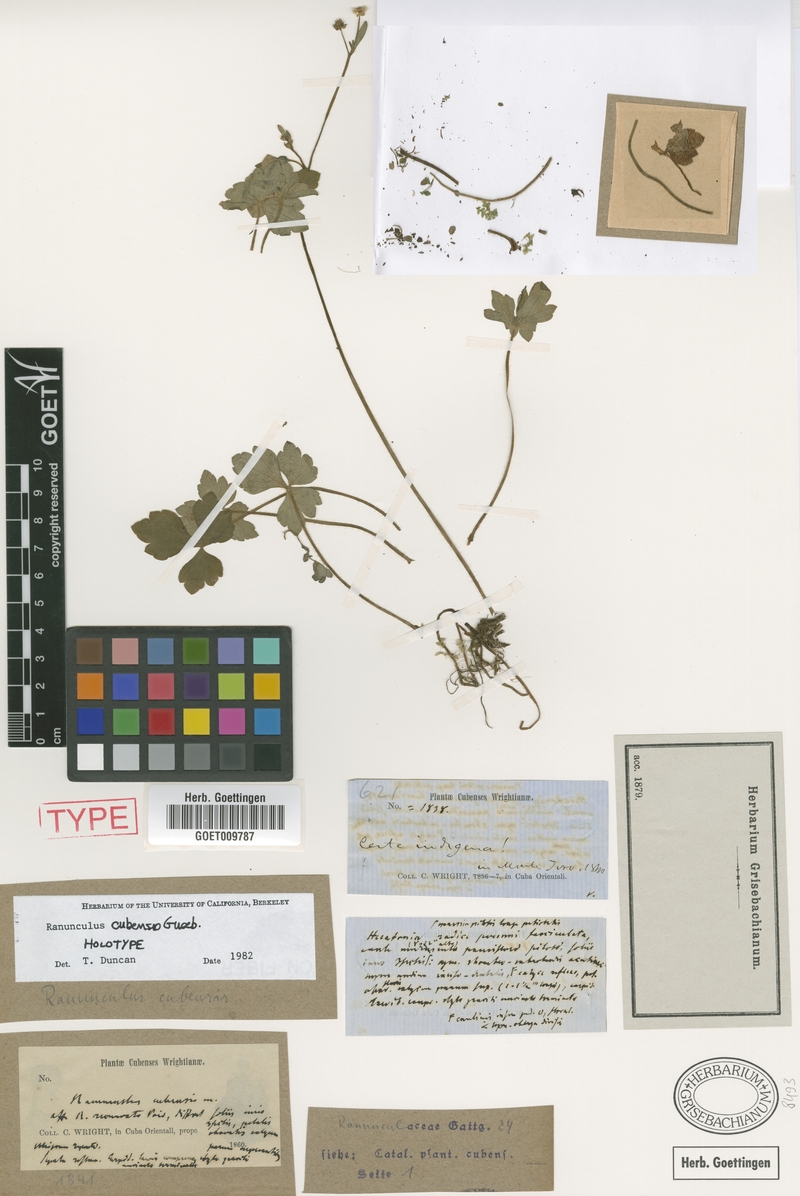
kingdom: Plantae
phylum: Tracheophyta
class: Magnoliopsida
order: Ranunculales
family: Ranunculaceae
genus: Ranunculus
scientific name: Ranunculus recurvatus
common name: Blisterwort
